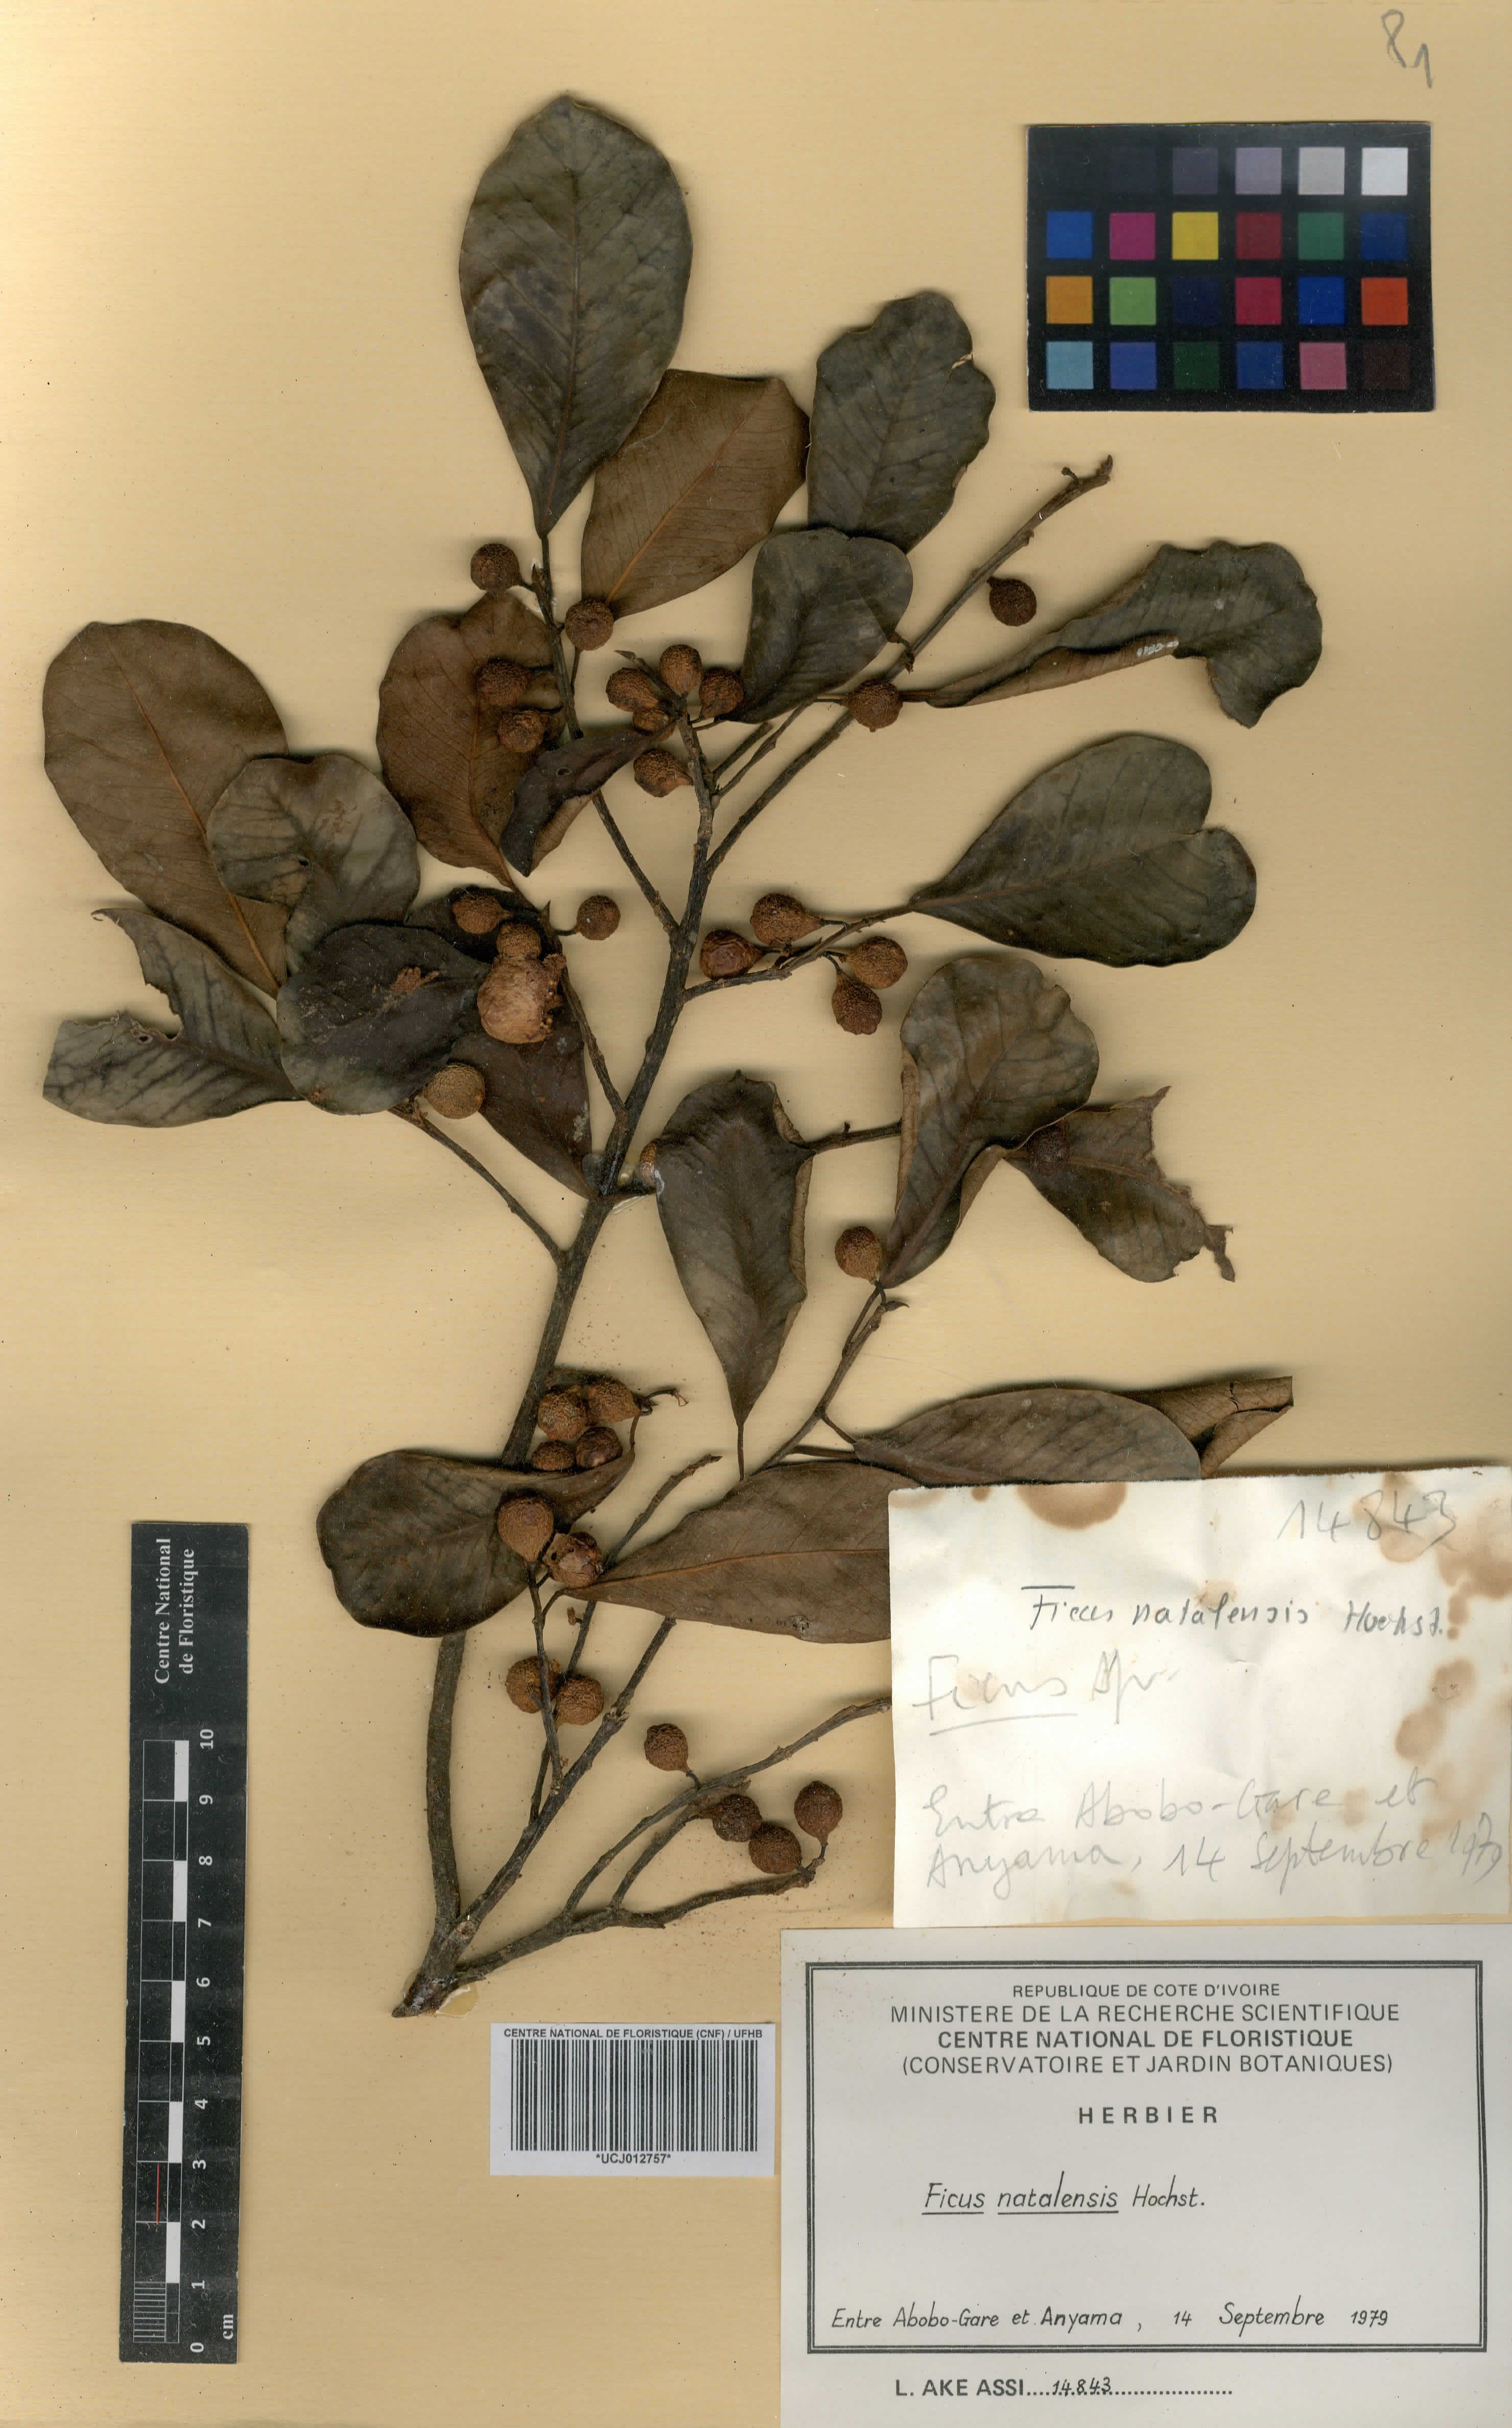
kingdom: Plantae
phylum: Tracheophyta
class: Magnoliopsida
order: Rosales
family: Moraceae
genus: Ficus
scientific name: Ficus natalensis
